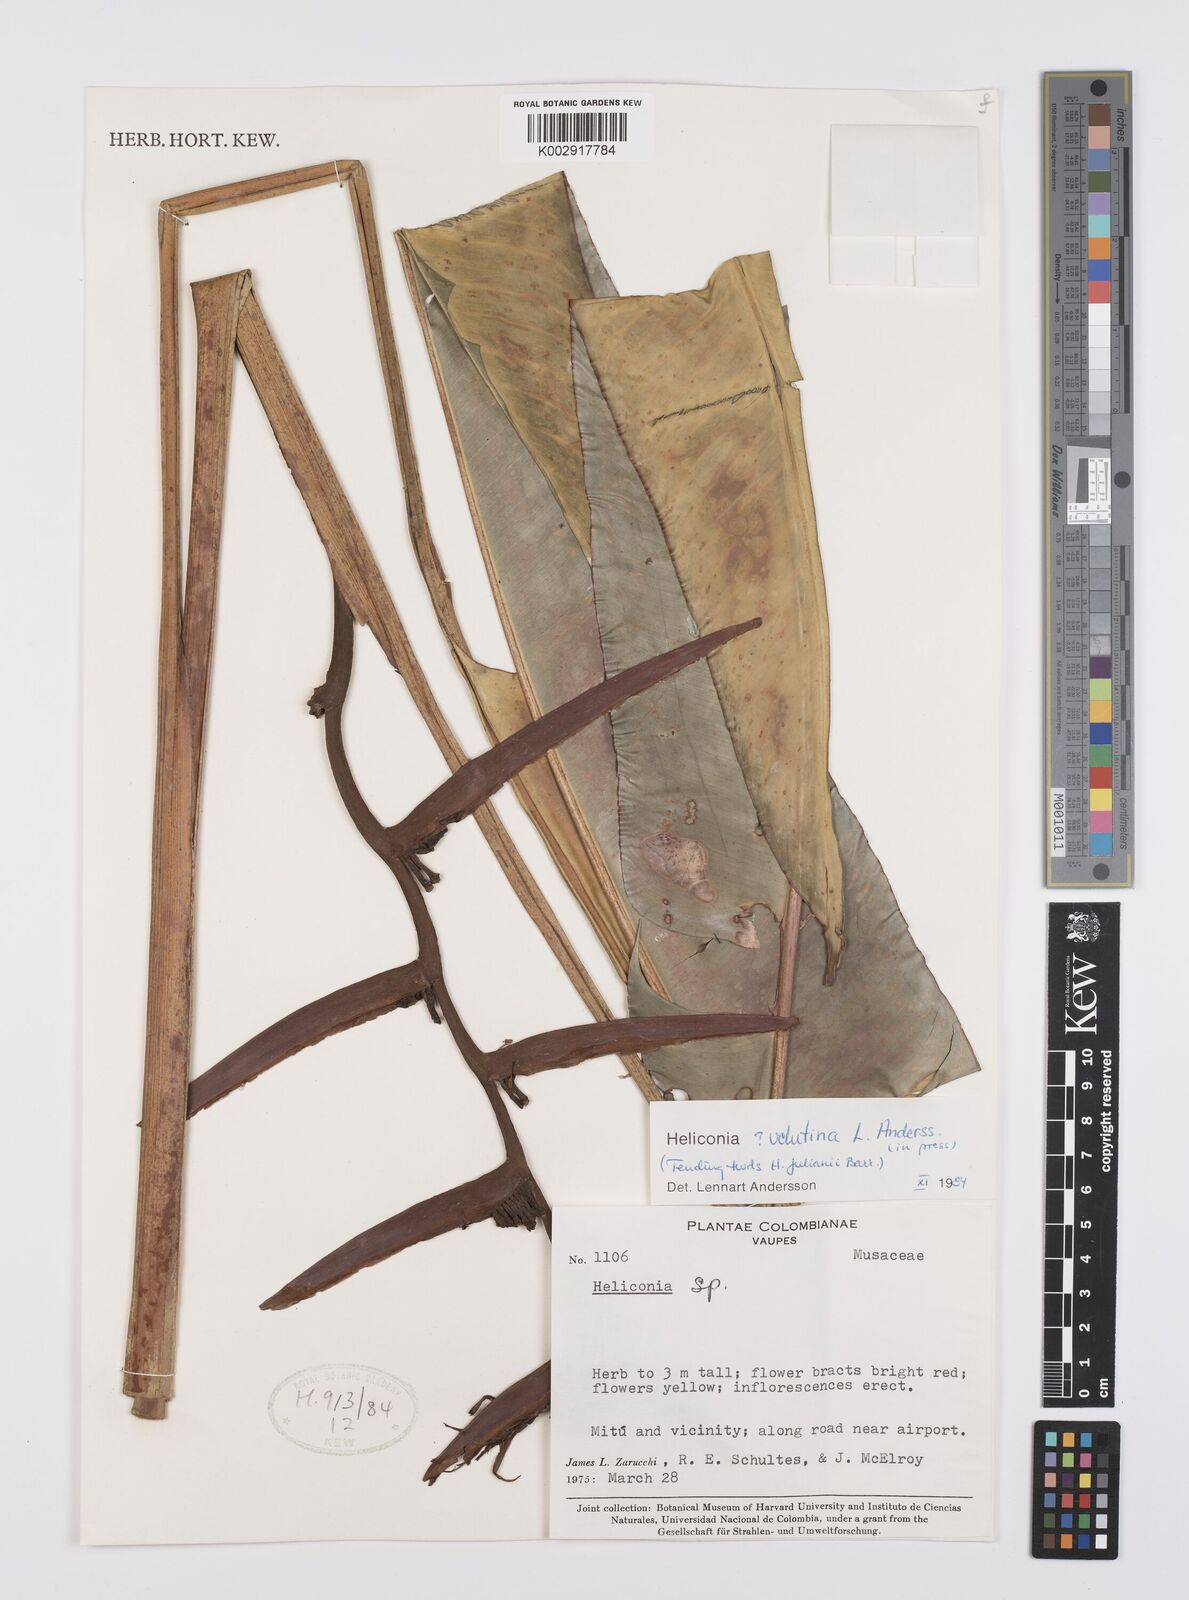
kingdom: Plantae
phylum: Tracheophyta
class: Liliopsida
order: Zingiberales
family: Heliconiaceae
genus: Heliconia
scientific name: Heliconia velutina
